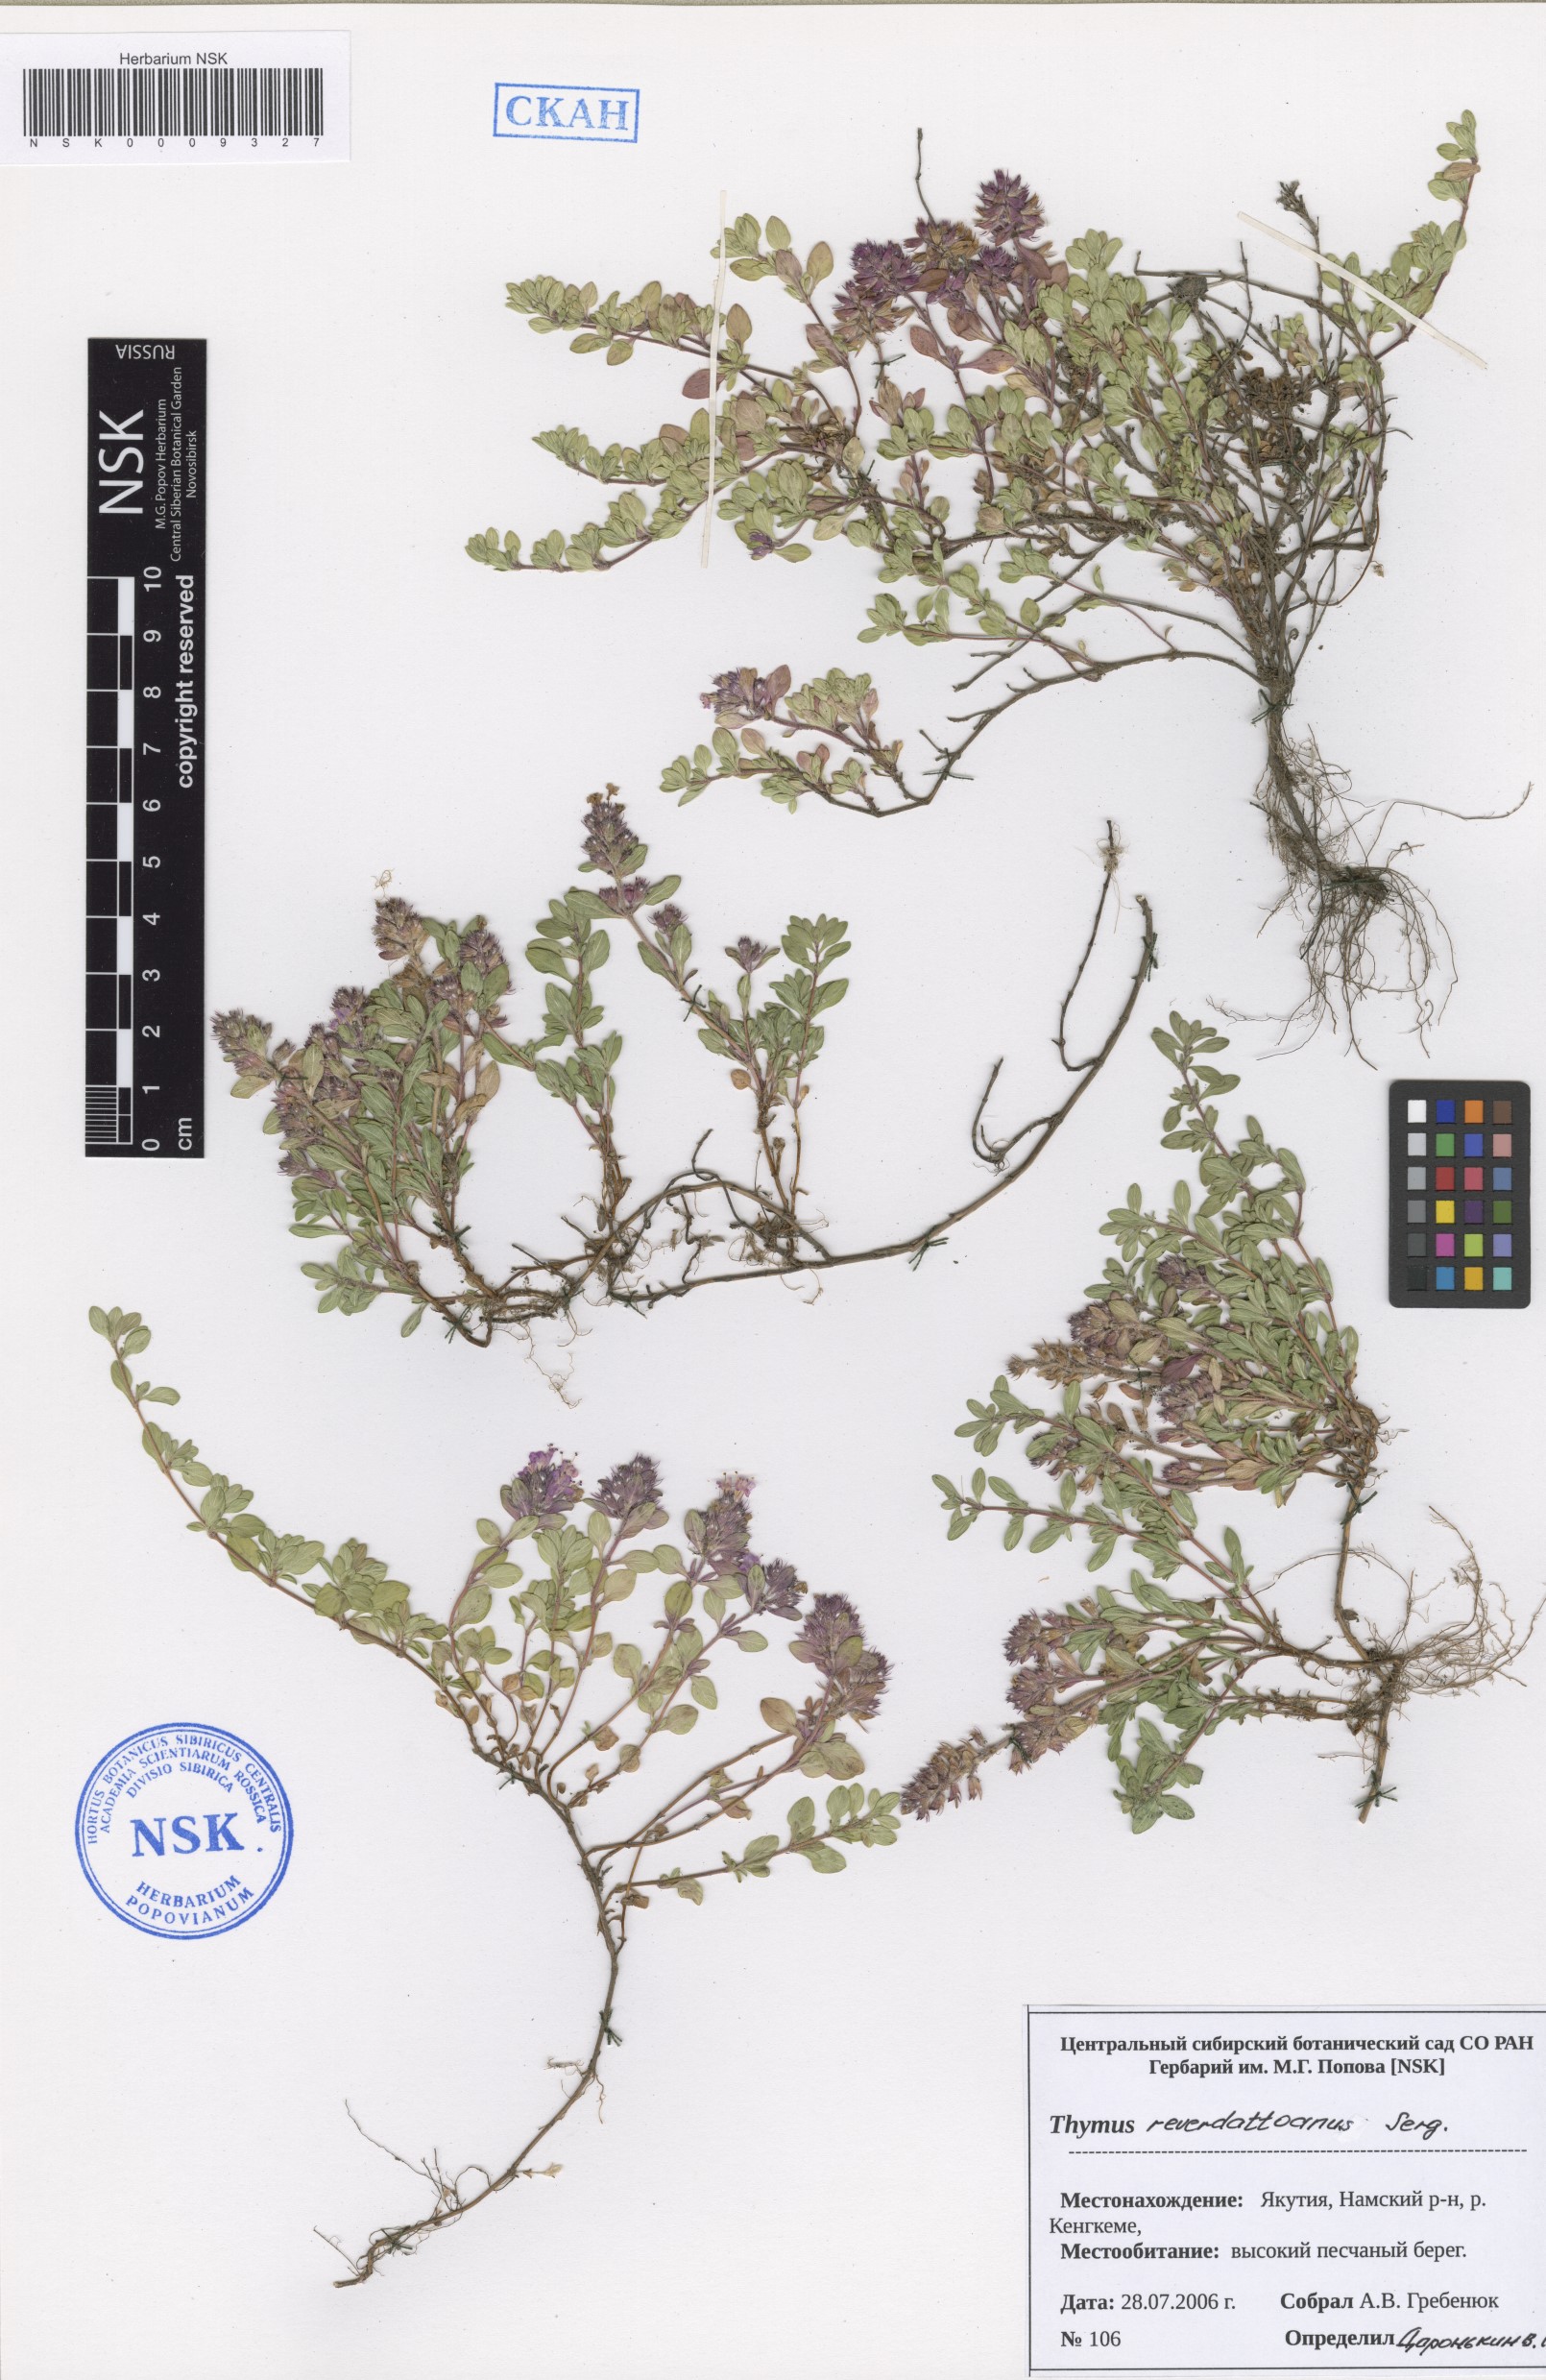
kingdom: Plantae
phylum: Tracheophyta
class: Magnoliopsida
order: Lamiales
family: Lamiaceae
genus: Thymus
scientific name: Thymus reverdattoanus
